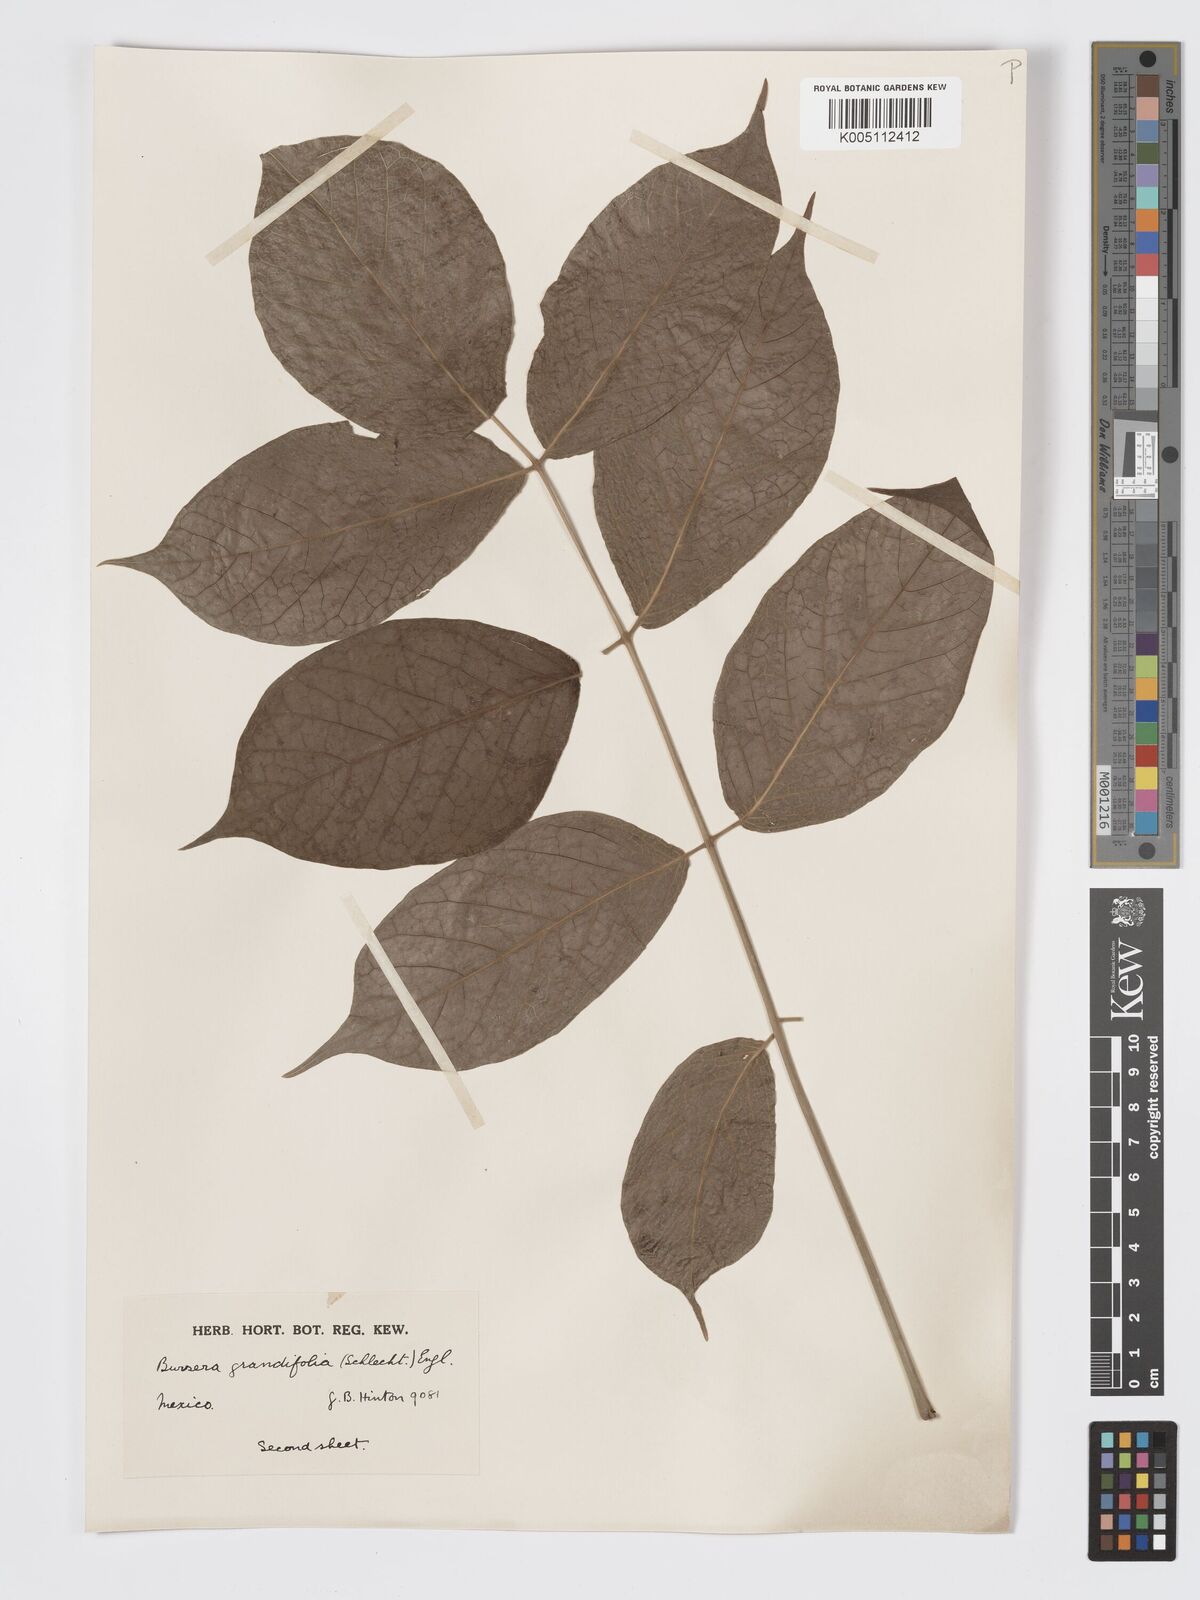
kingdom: Plantae
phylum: Tracheophyta
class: Magnoliopsida
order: Sapindales
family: Burseraceae
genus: Bursera
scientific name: Bursera grandifolia
